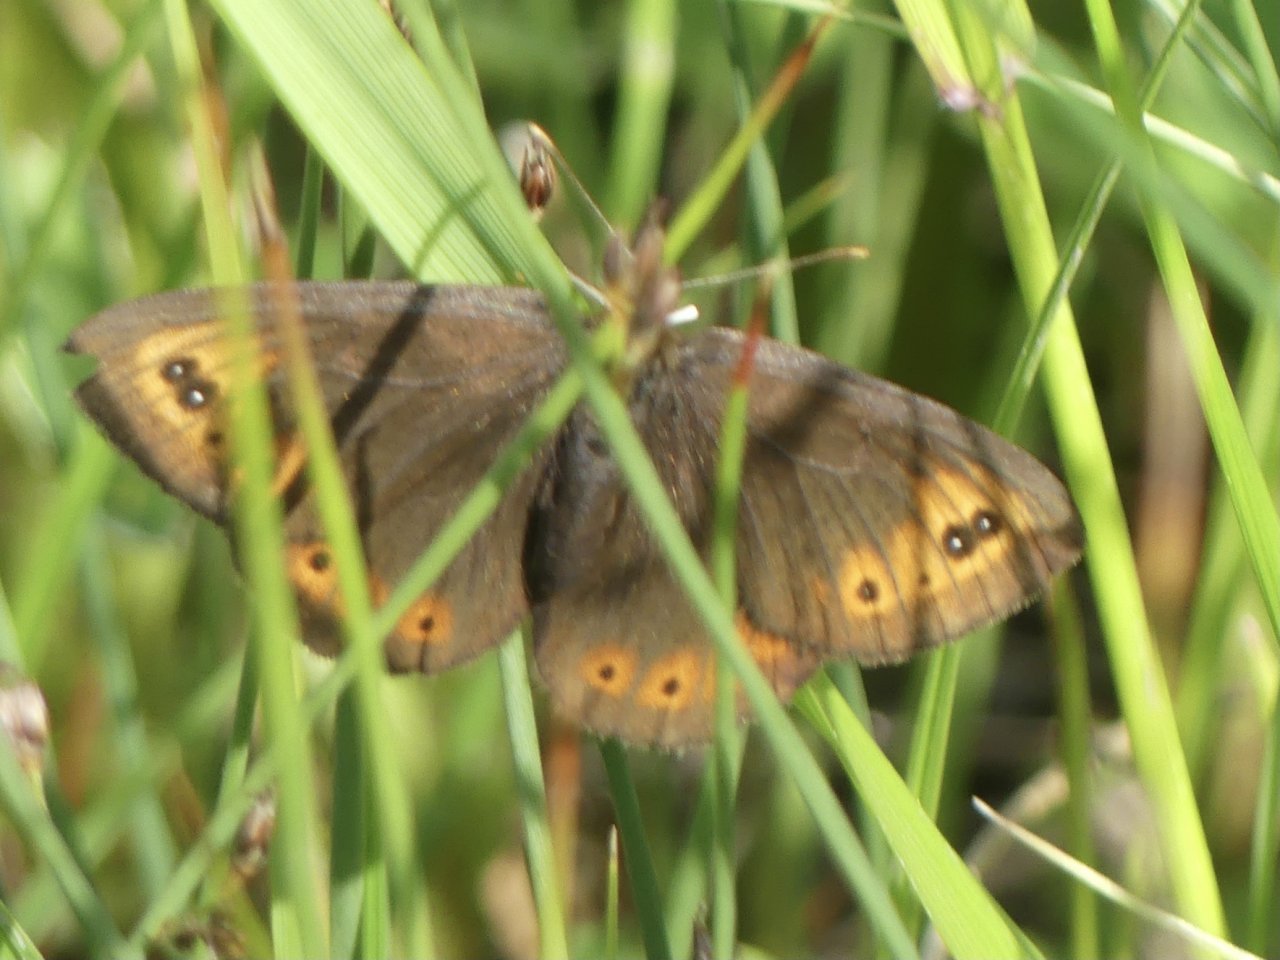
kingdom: Animalia
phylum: Arthropoda
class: Insecta
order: Lepidoptera
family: Nymphalidae
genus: Erebia
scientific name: Erebia epipsodea
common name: Common Alpine
